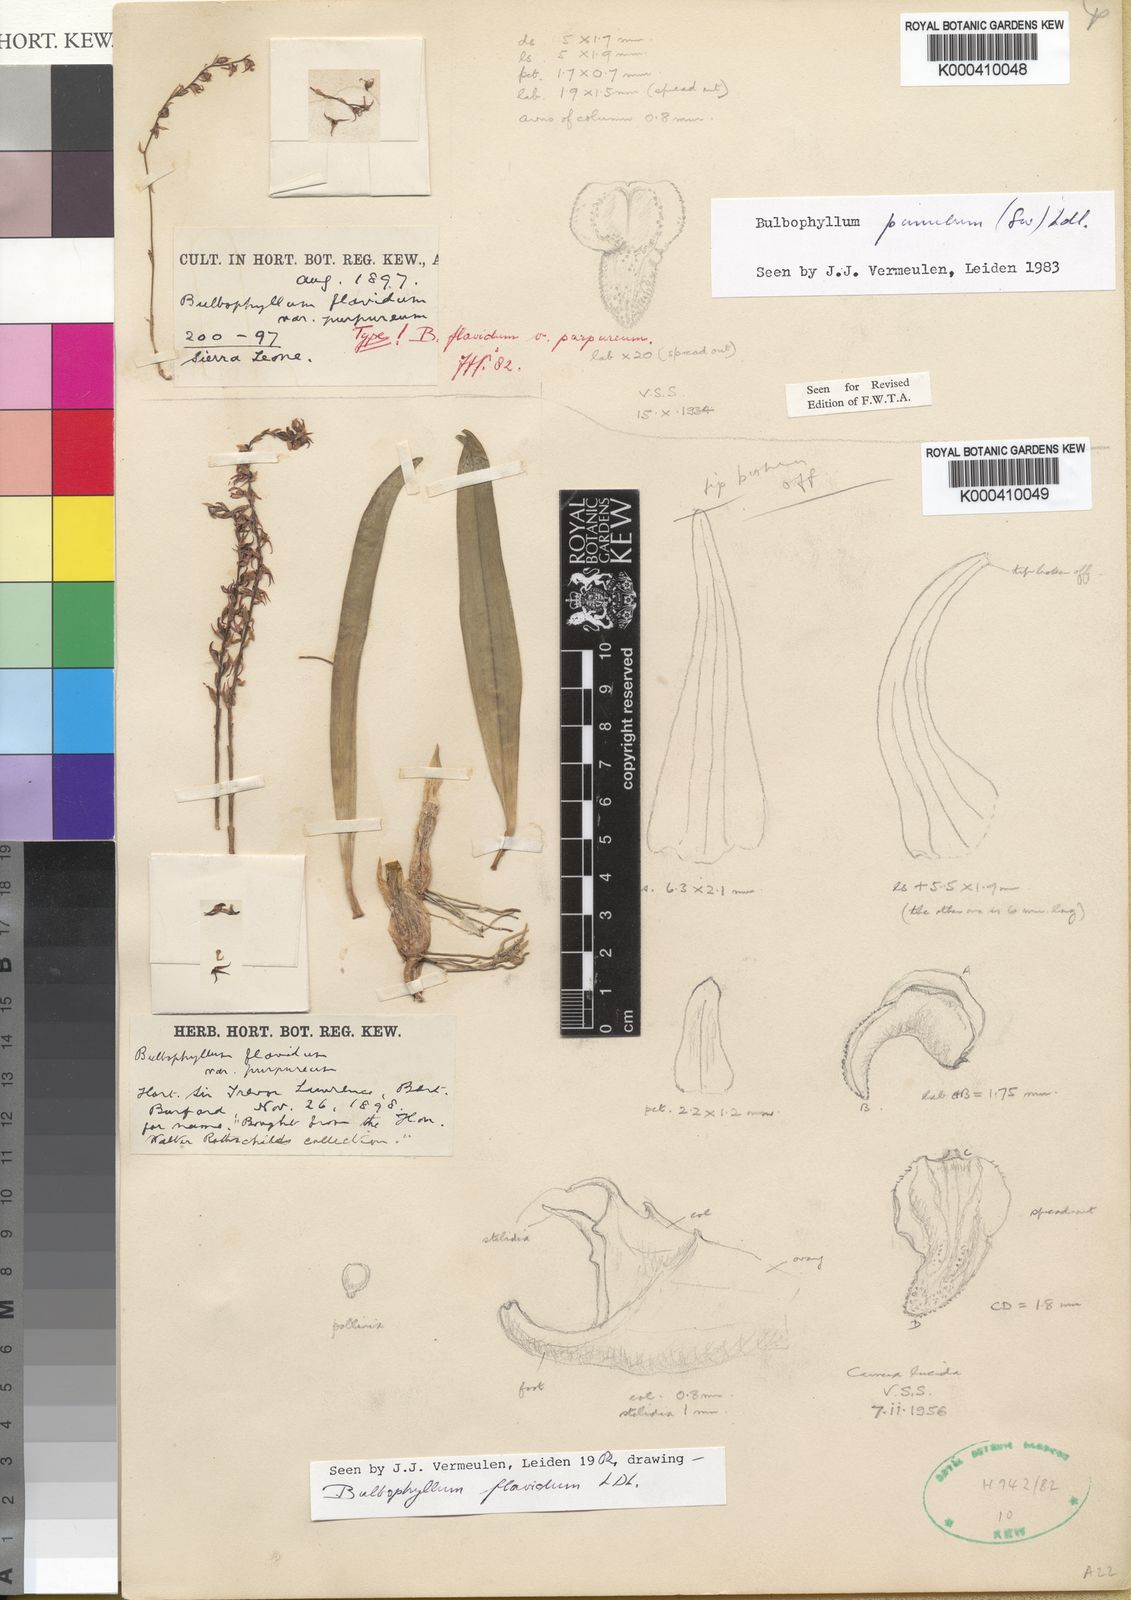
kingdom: Plantae
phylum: Tracheophyta
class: Liliopsida
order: Asparagales
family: Orchidaceae
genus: Bulbophyllum
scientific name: Bulbophyllum pumilum
